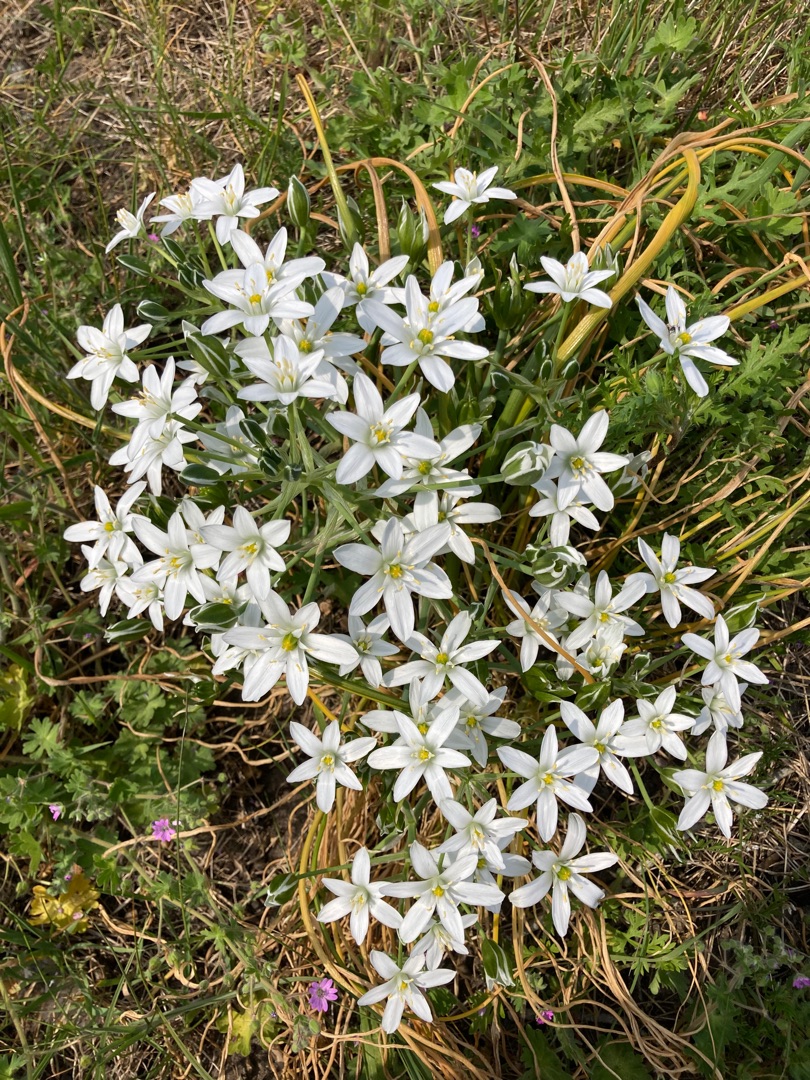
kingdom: Plantae
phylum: Tracheophyta
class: Liliopsida
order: Asparagales
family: Asparagaceae
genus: Ornithogalum
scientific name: Ornithogalum umbellatum
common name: Kost-fuglemælk
